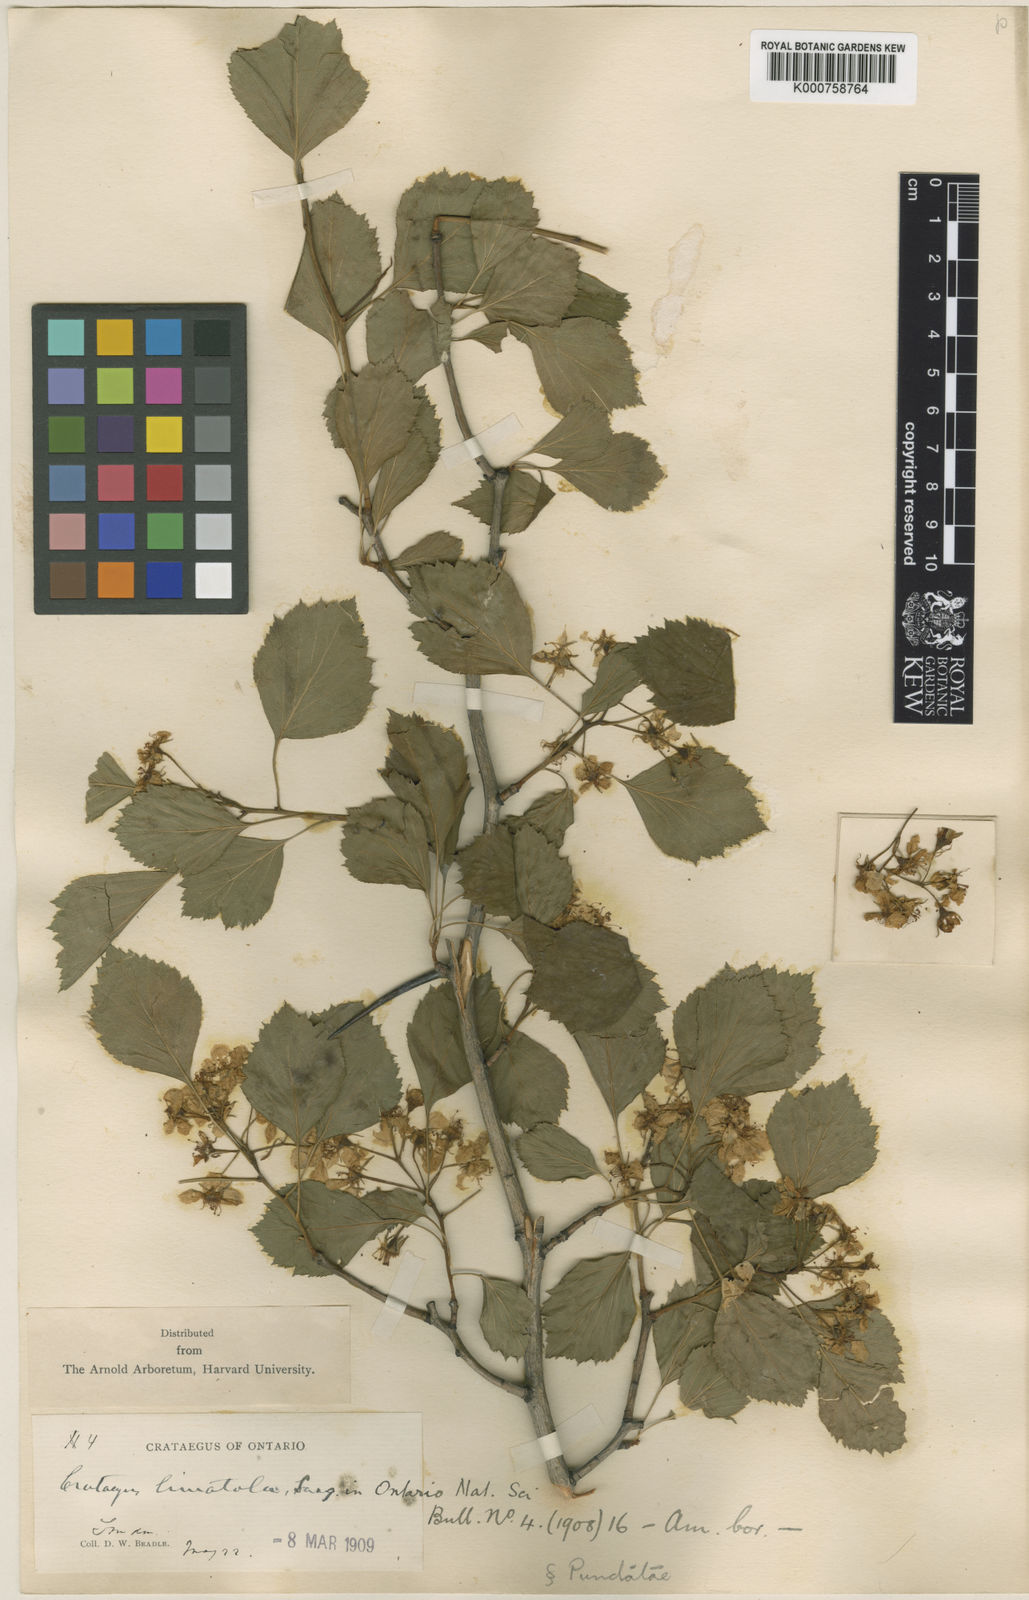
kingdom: Plantae
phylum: Tracheophyta
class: Magnoliopsida
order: Rosales
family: Rosaceae
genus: Crataegus
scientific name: Crataegus
